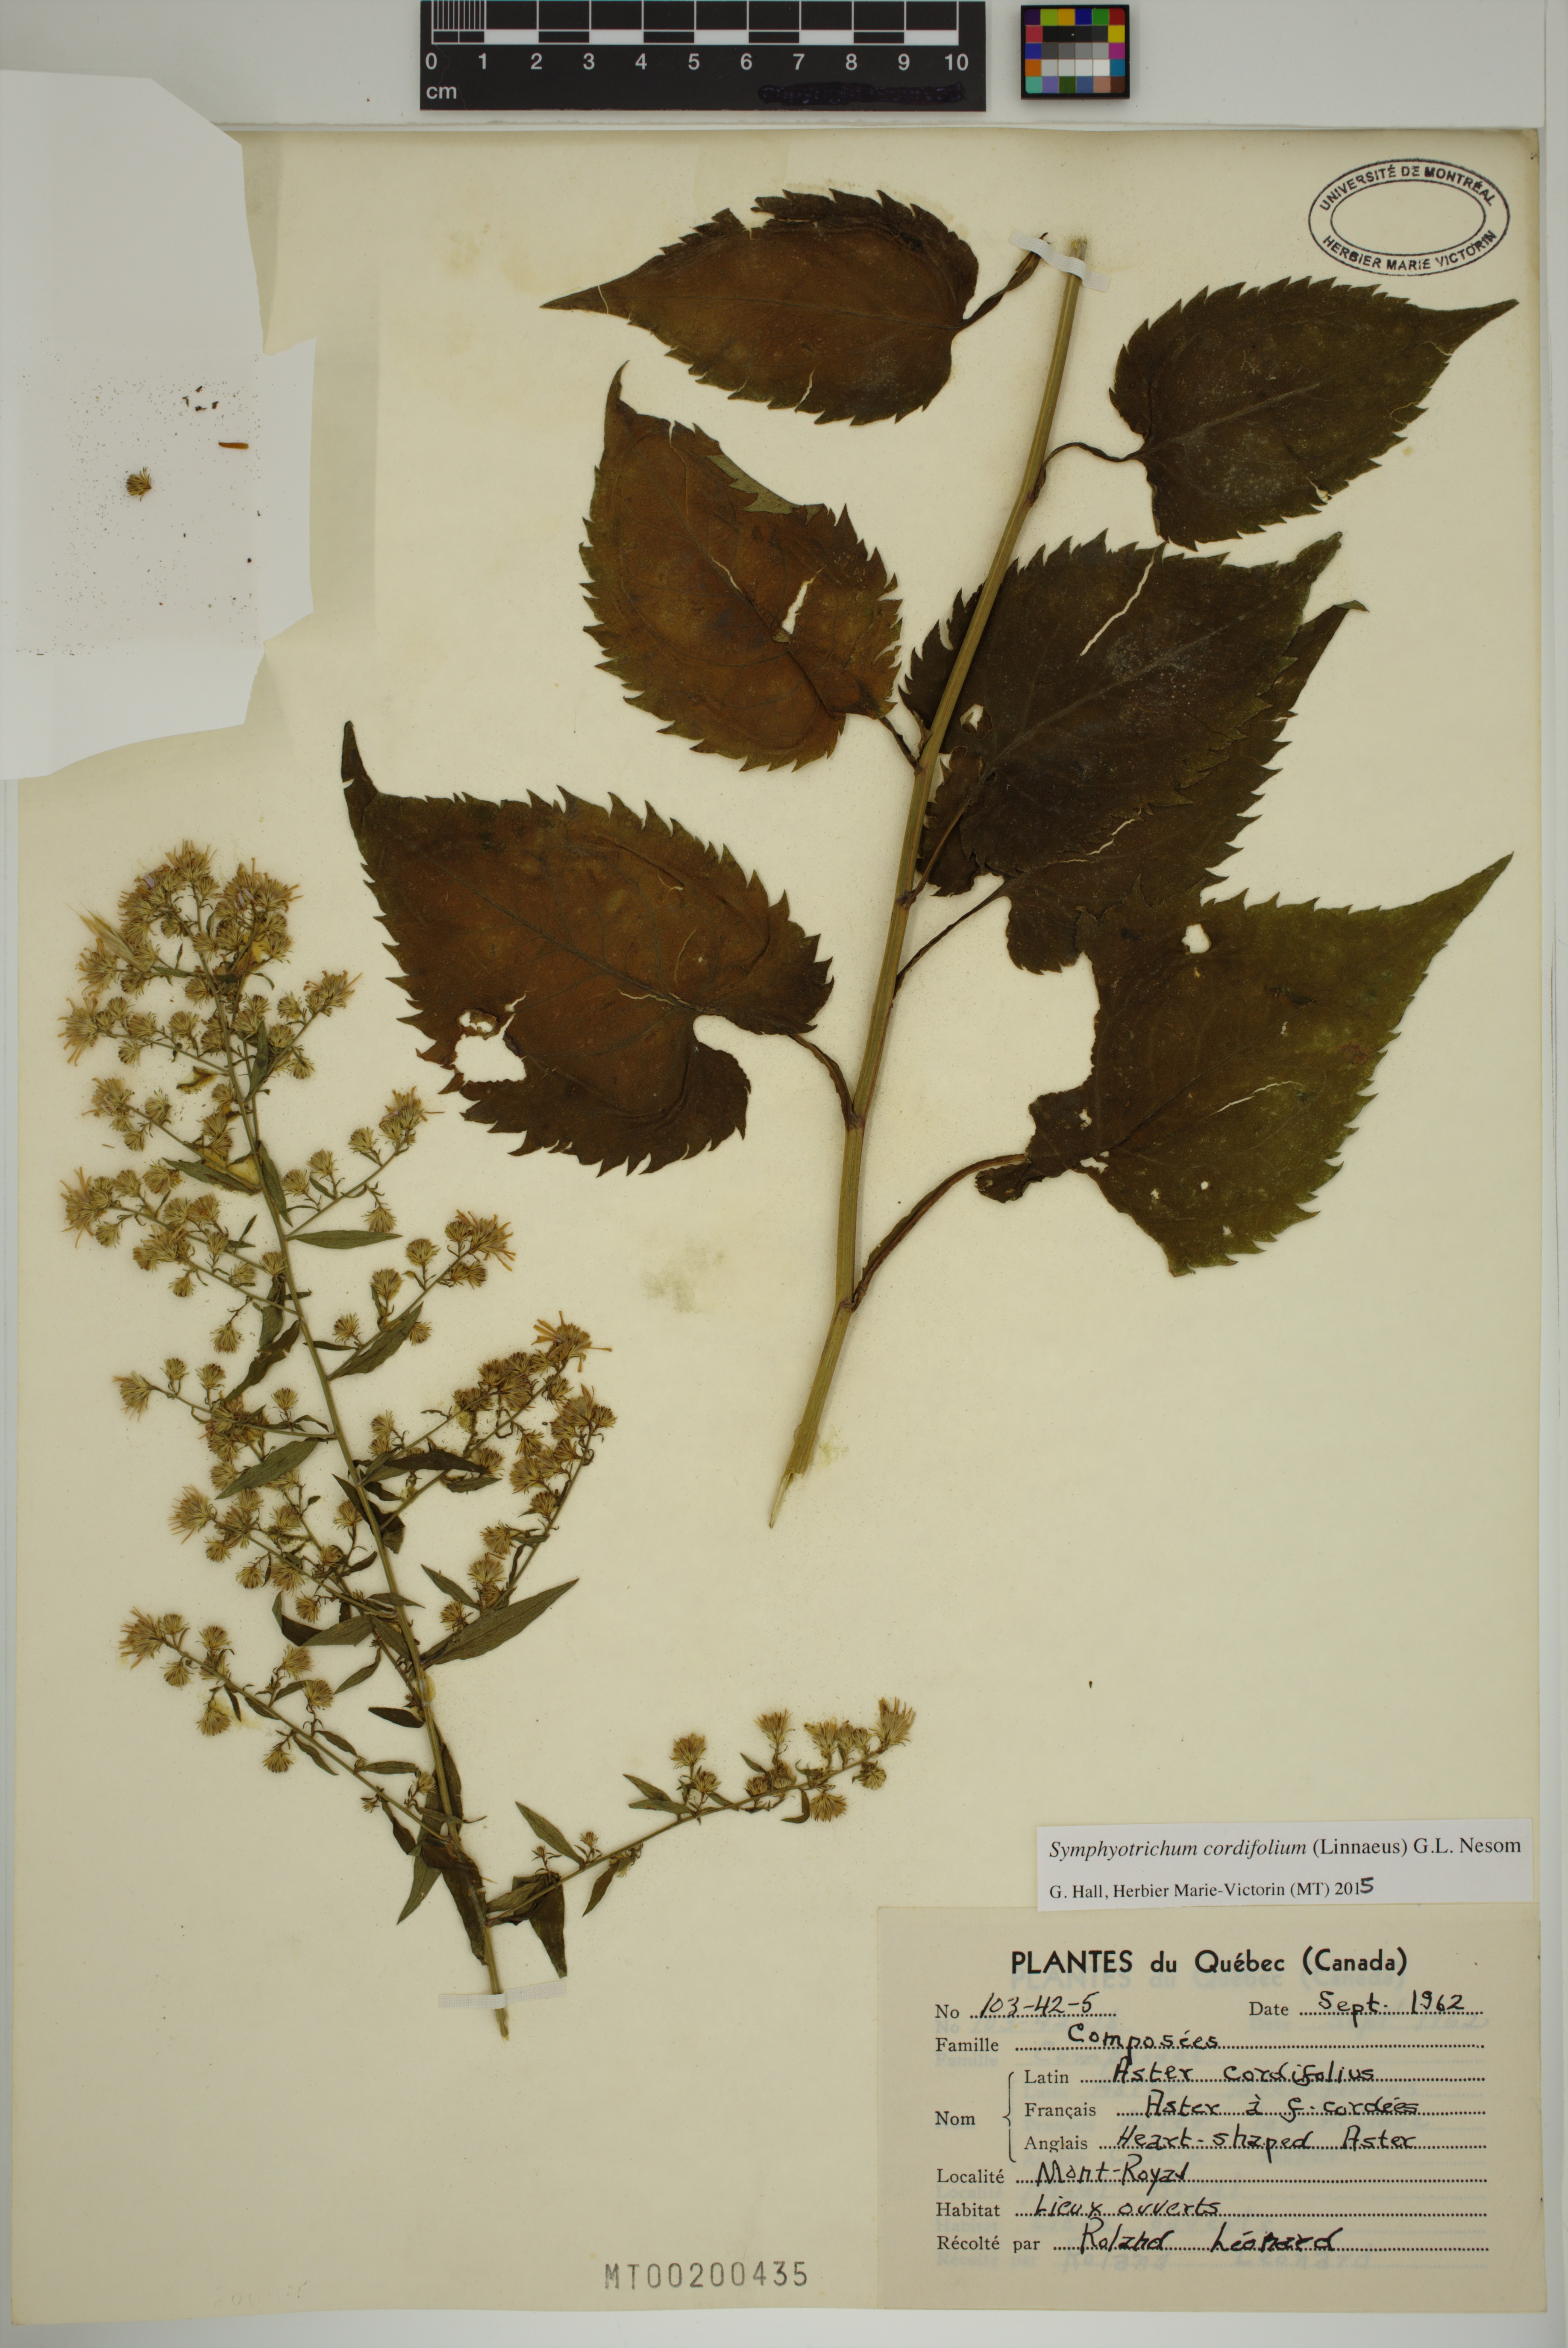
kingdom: Plantae
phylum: Tracheophyta
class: Magnoliopsida
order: Asterales
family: Asteraceae
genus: Symphyotrichum
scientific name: Symphyotrichum cordifolium
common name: Beeweed
